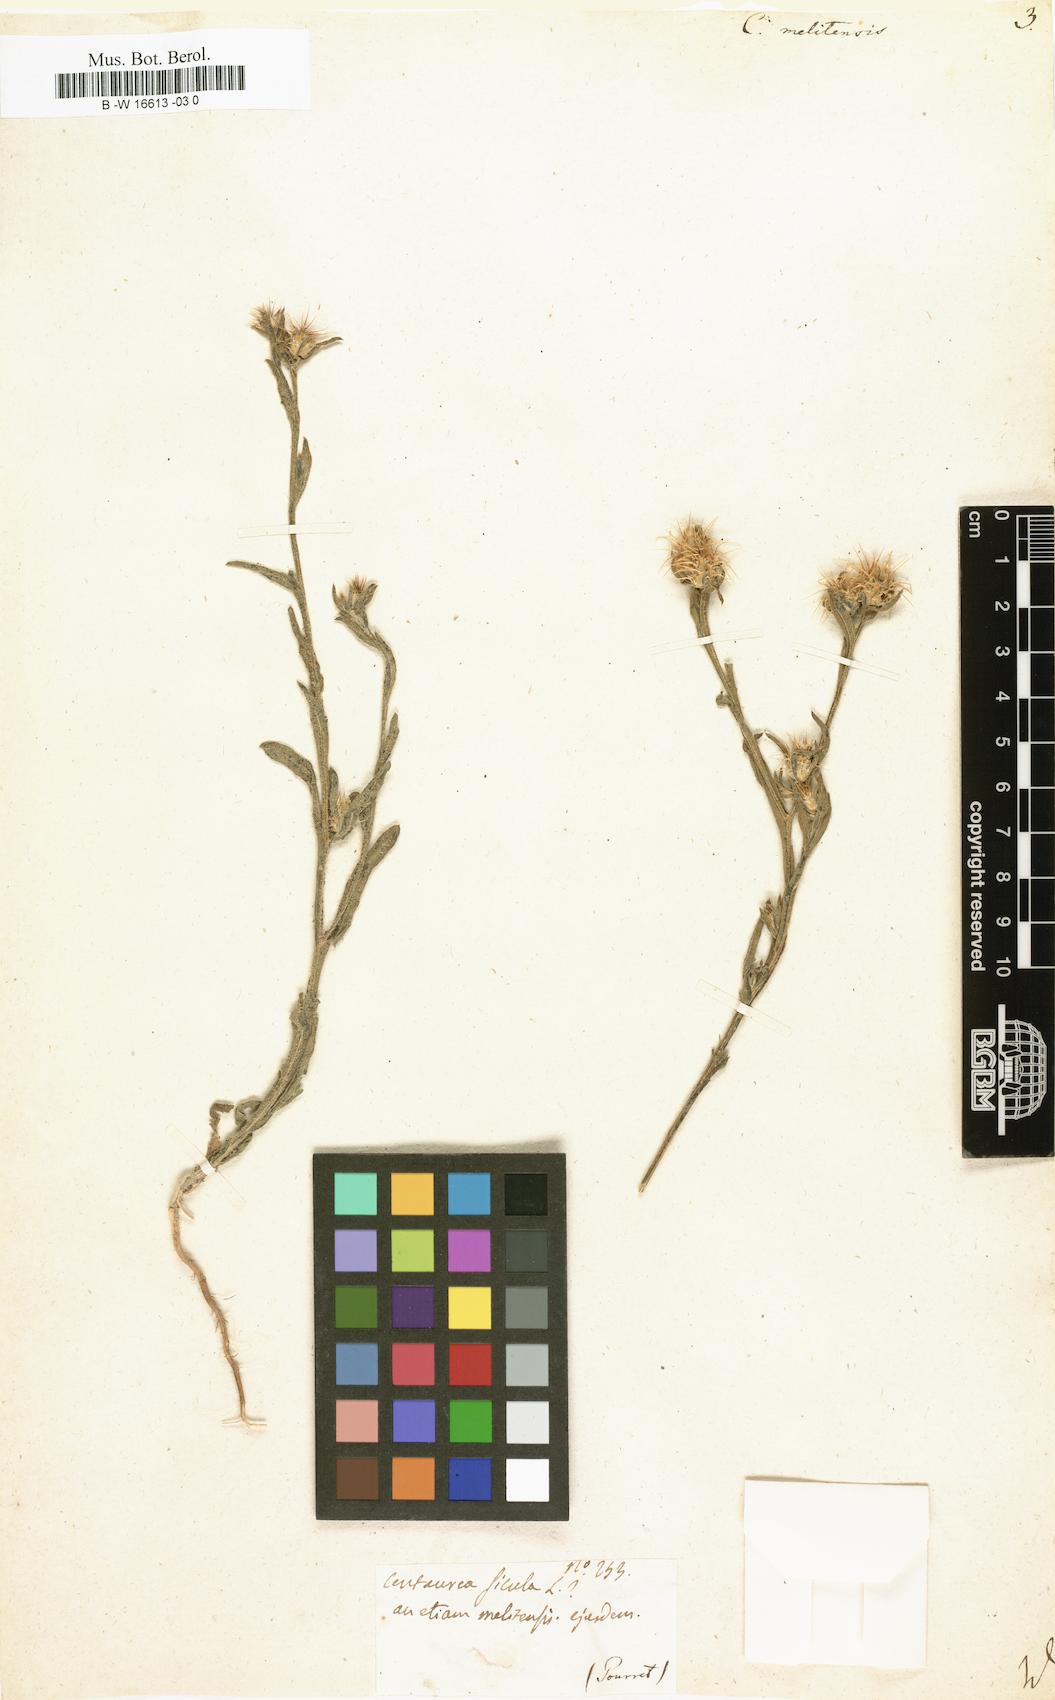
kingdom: Plantae
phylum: Tracheophyta
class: Magnoliopsida
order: Asterales
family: Asteraceae
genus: Centaurea
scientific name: Centaurea melitensis
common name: Maltese star-thistle
